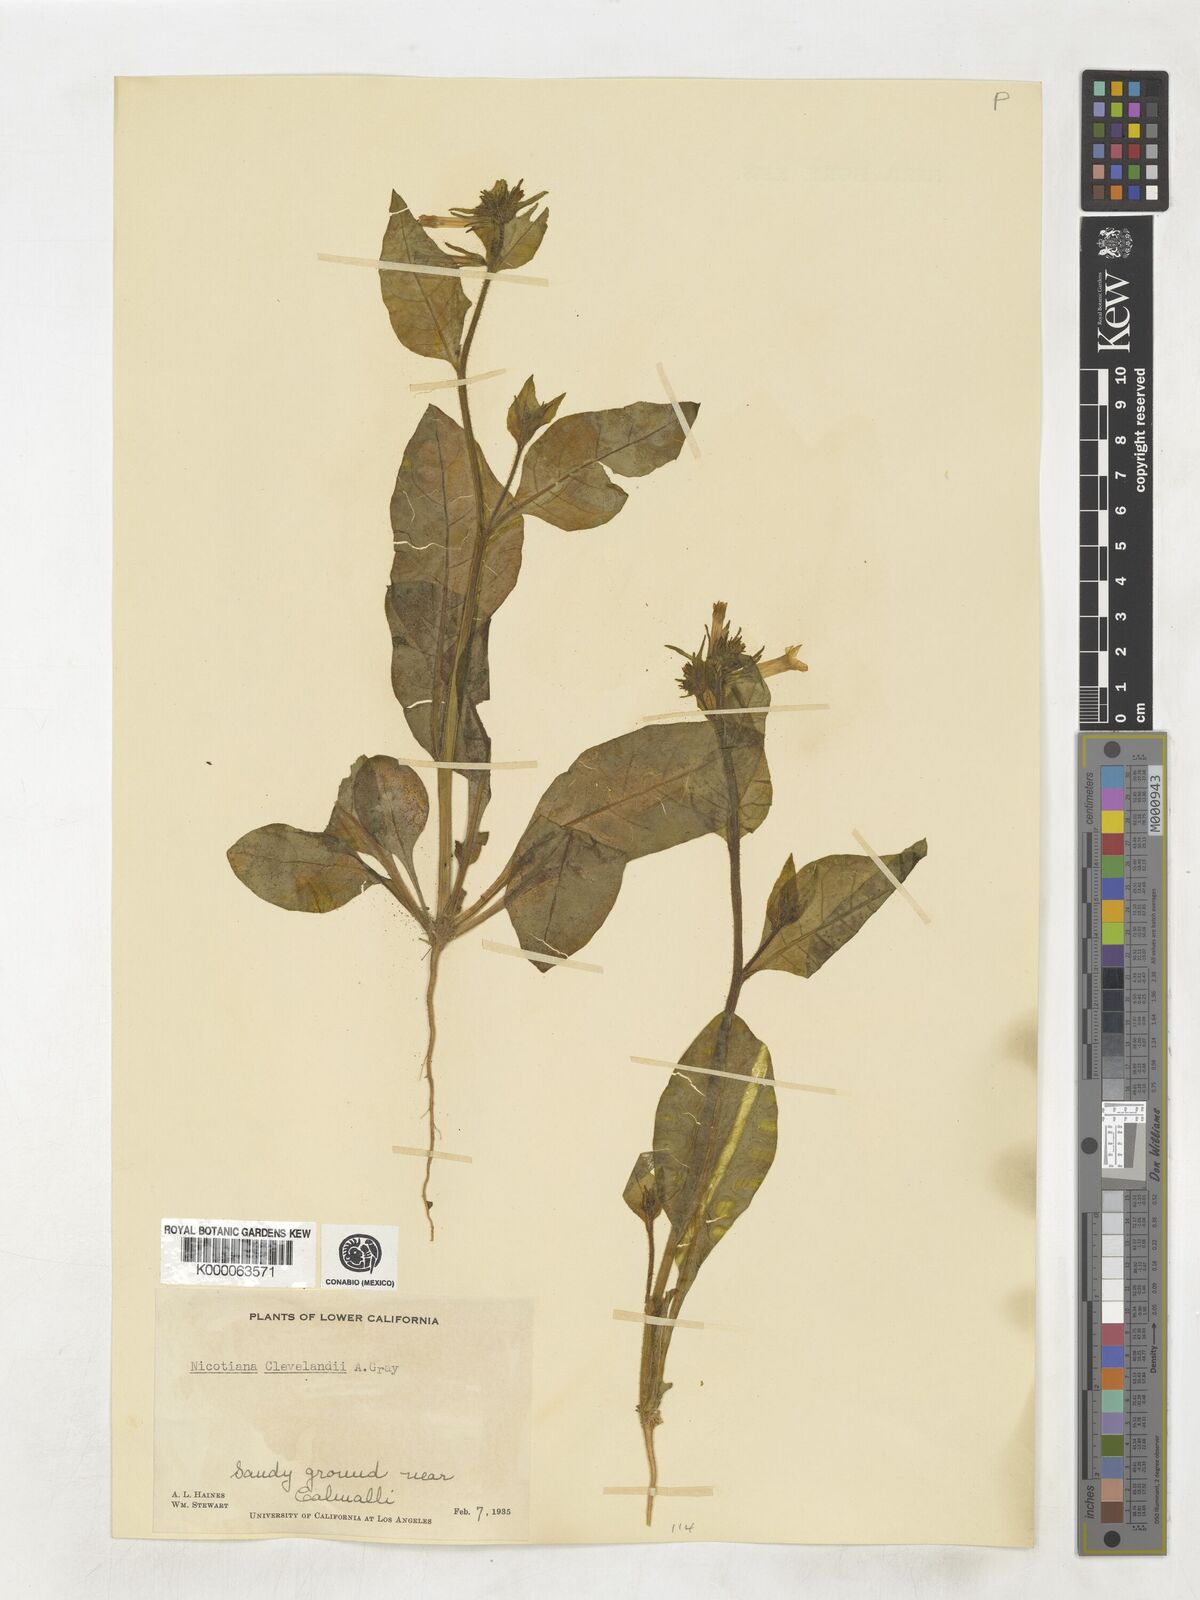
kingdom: Plantae
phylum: Tracheophyta
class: Magnoliopsida
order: Solanales
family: Solanaceae
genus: Nicotiana
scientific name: Nicotiana clevelandii
